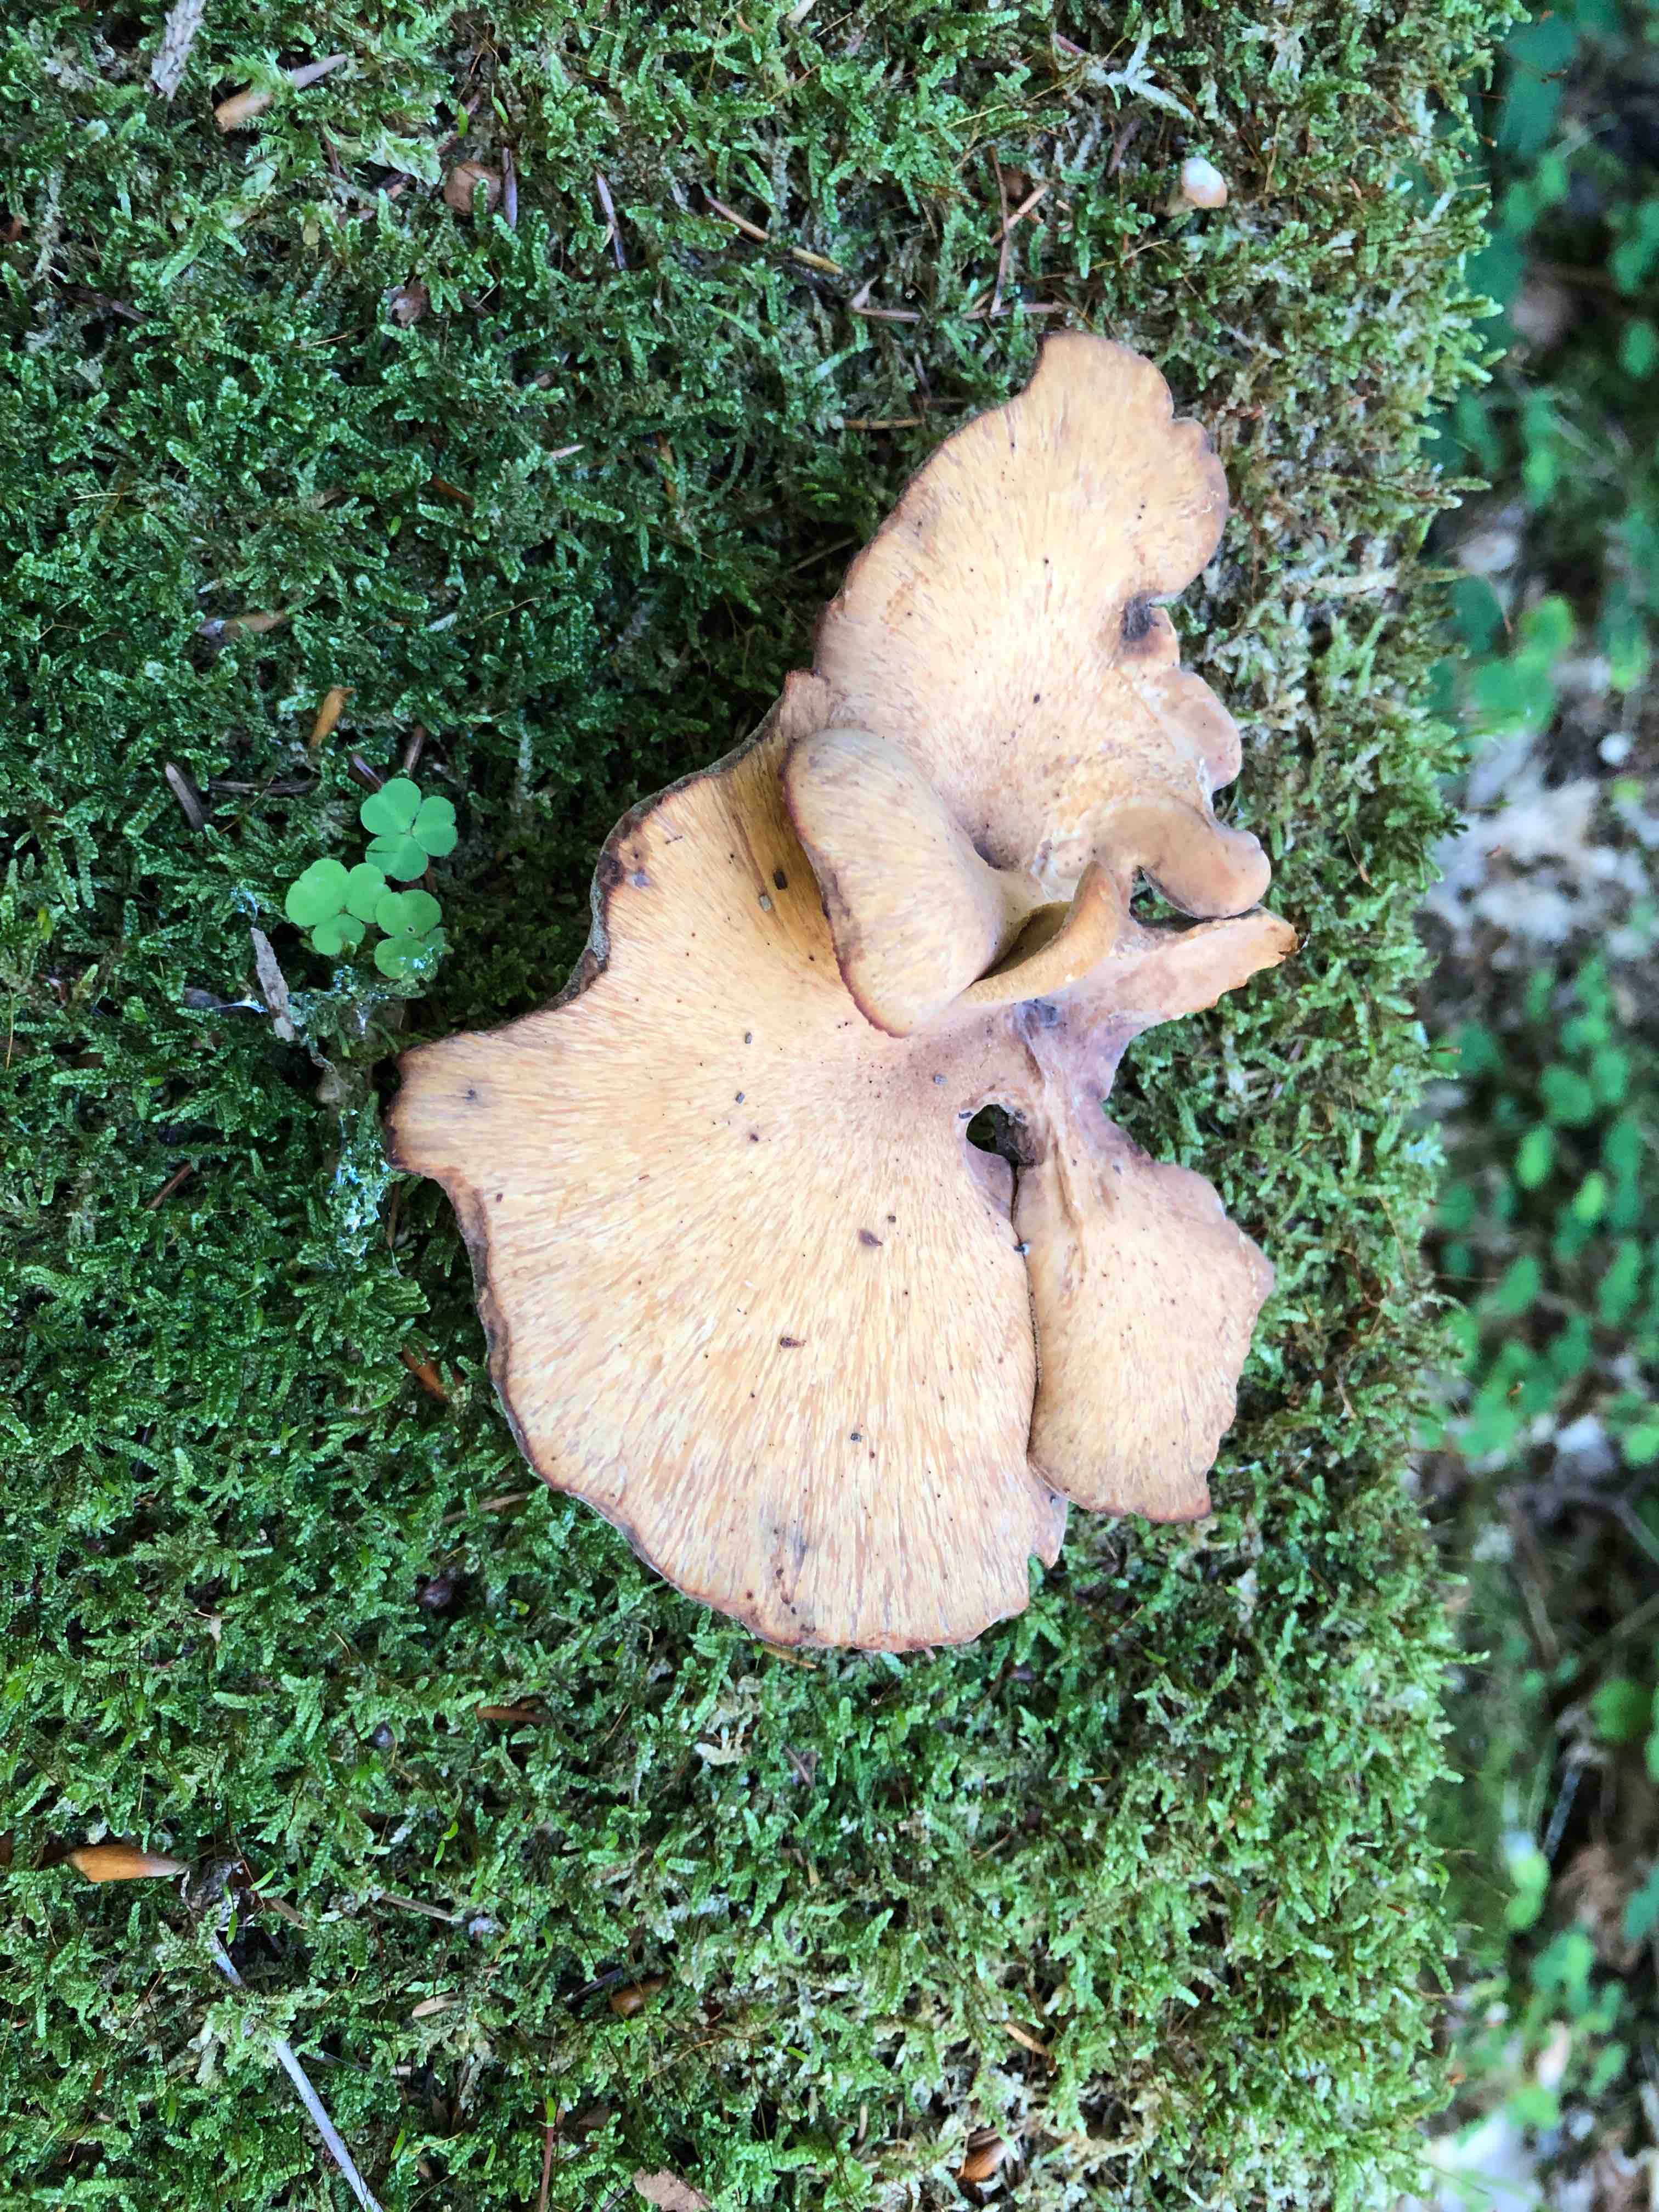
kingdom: Fungi
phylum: Basidiomycota
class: Agaricomycetes
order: Polyporales
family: Polyporaceae
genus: Cerioporus
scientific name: Cerioporus varius
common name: foranderlig stilkporesvamp
